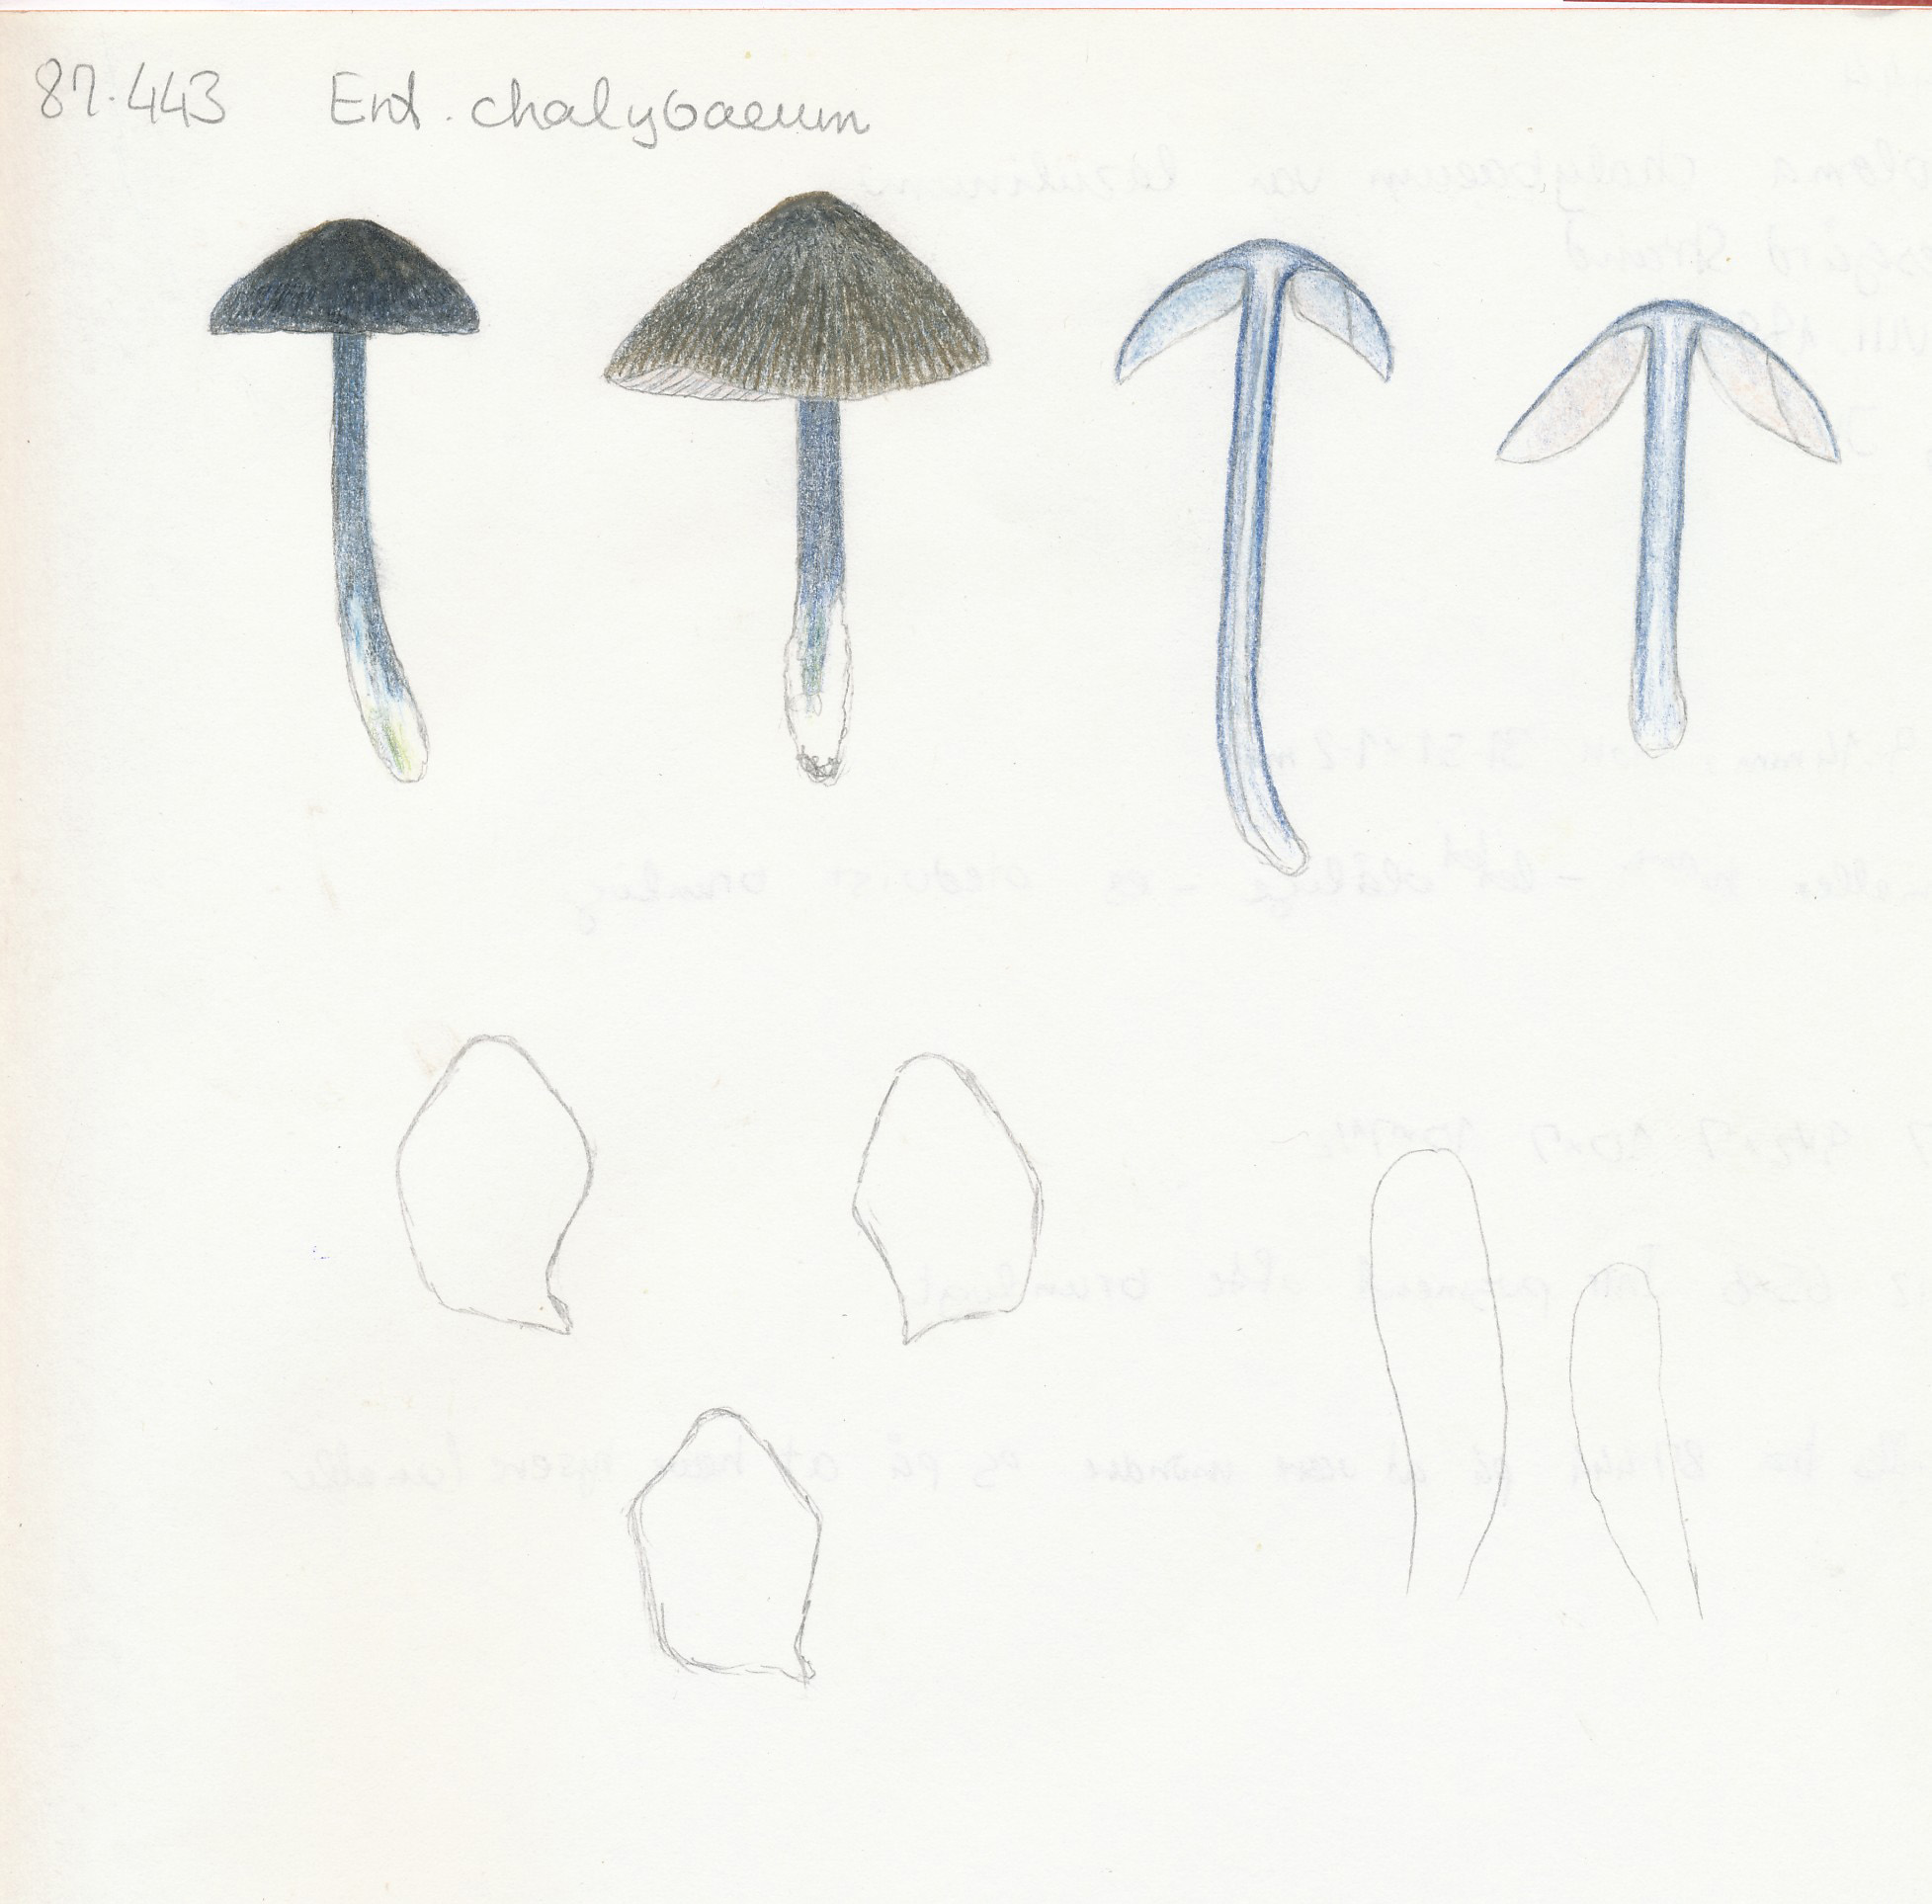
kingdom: Fungi
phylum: Basidiomycota
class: Agaricomycetes
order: Agaricales
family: Entolomataceae
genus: Entoloma
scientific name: Entoloma chalybeum
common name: blåbladet rødblad
